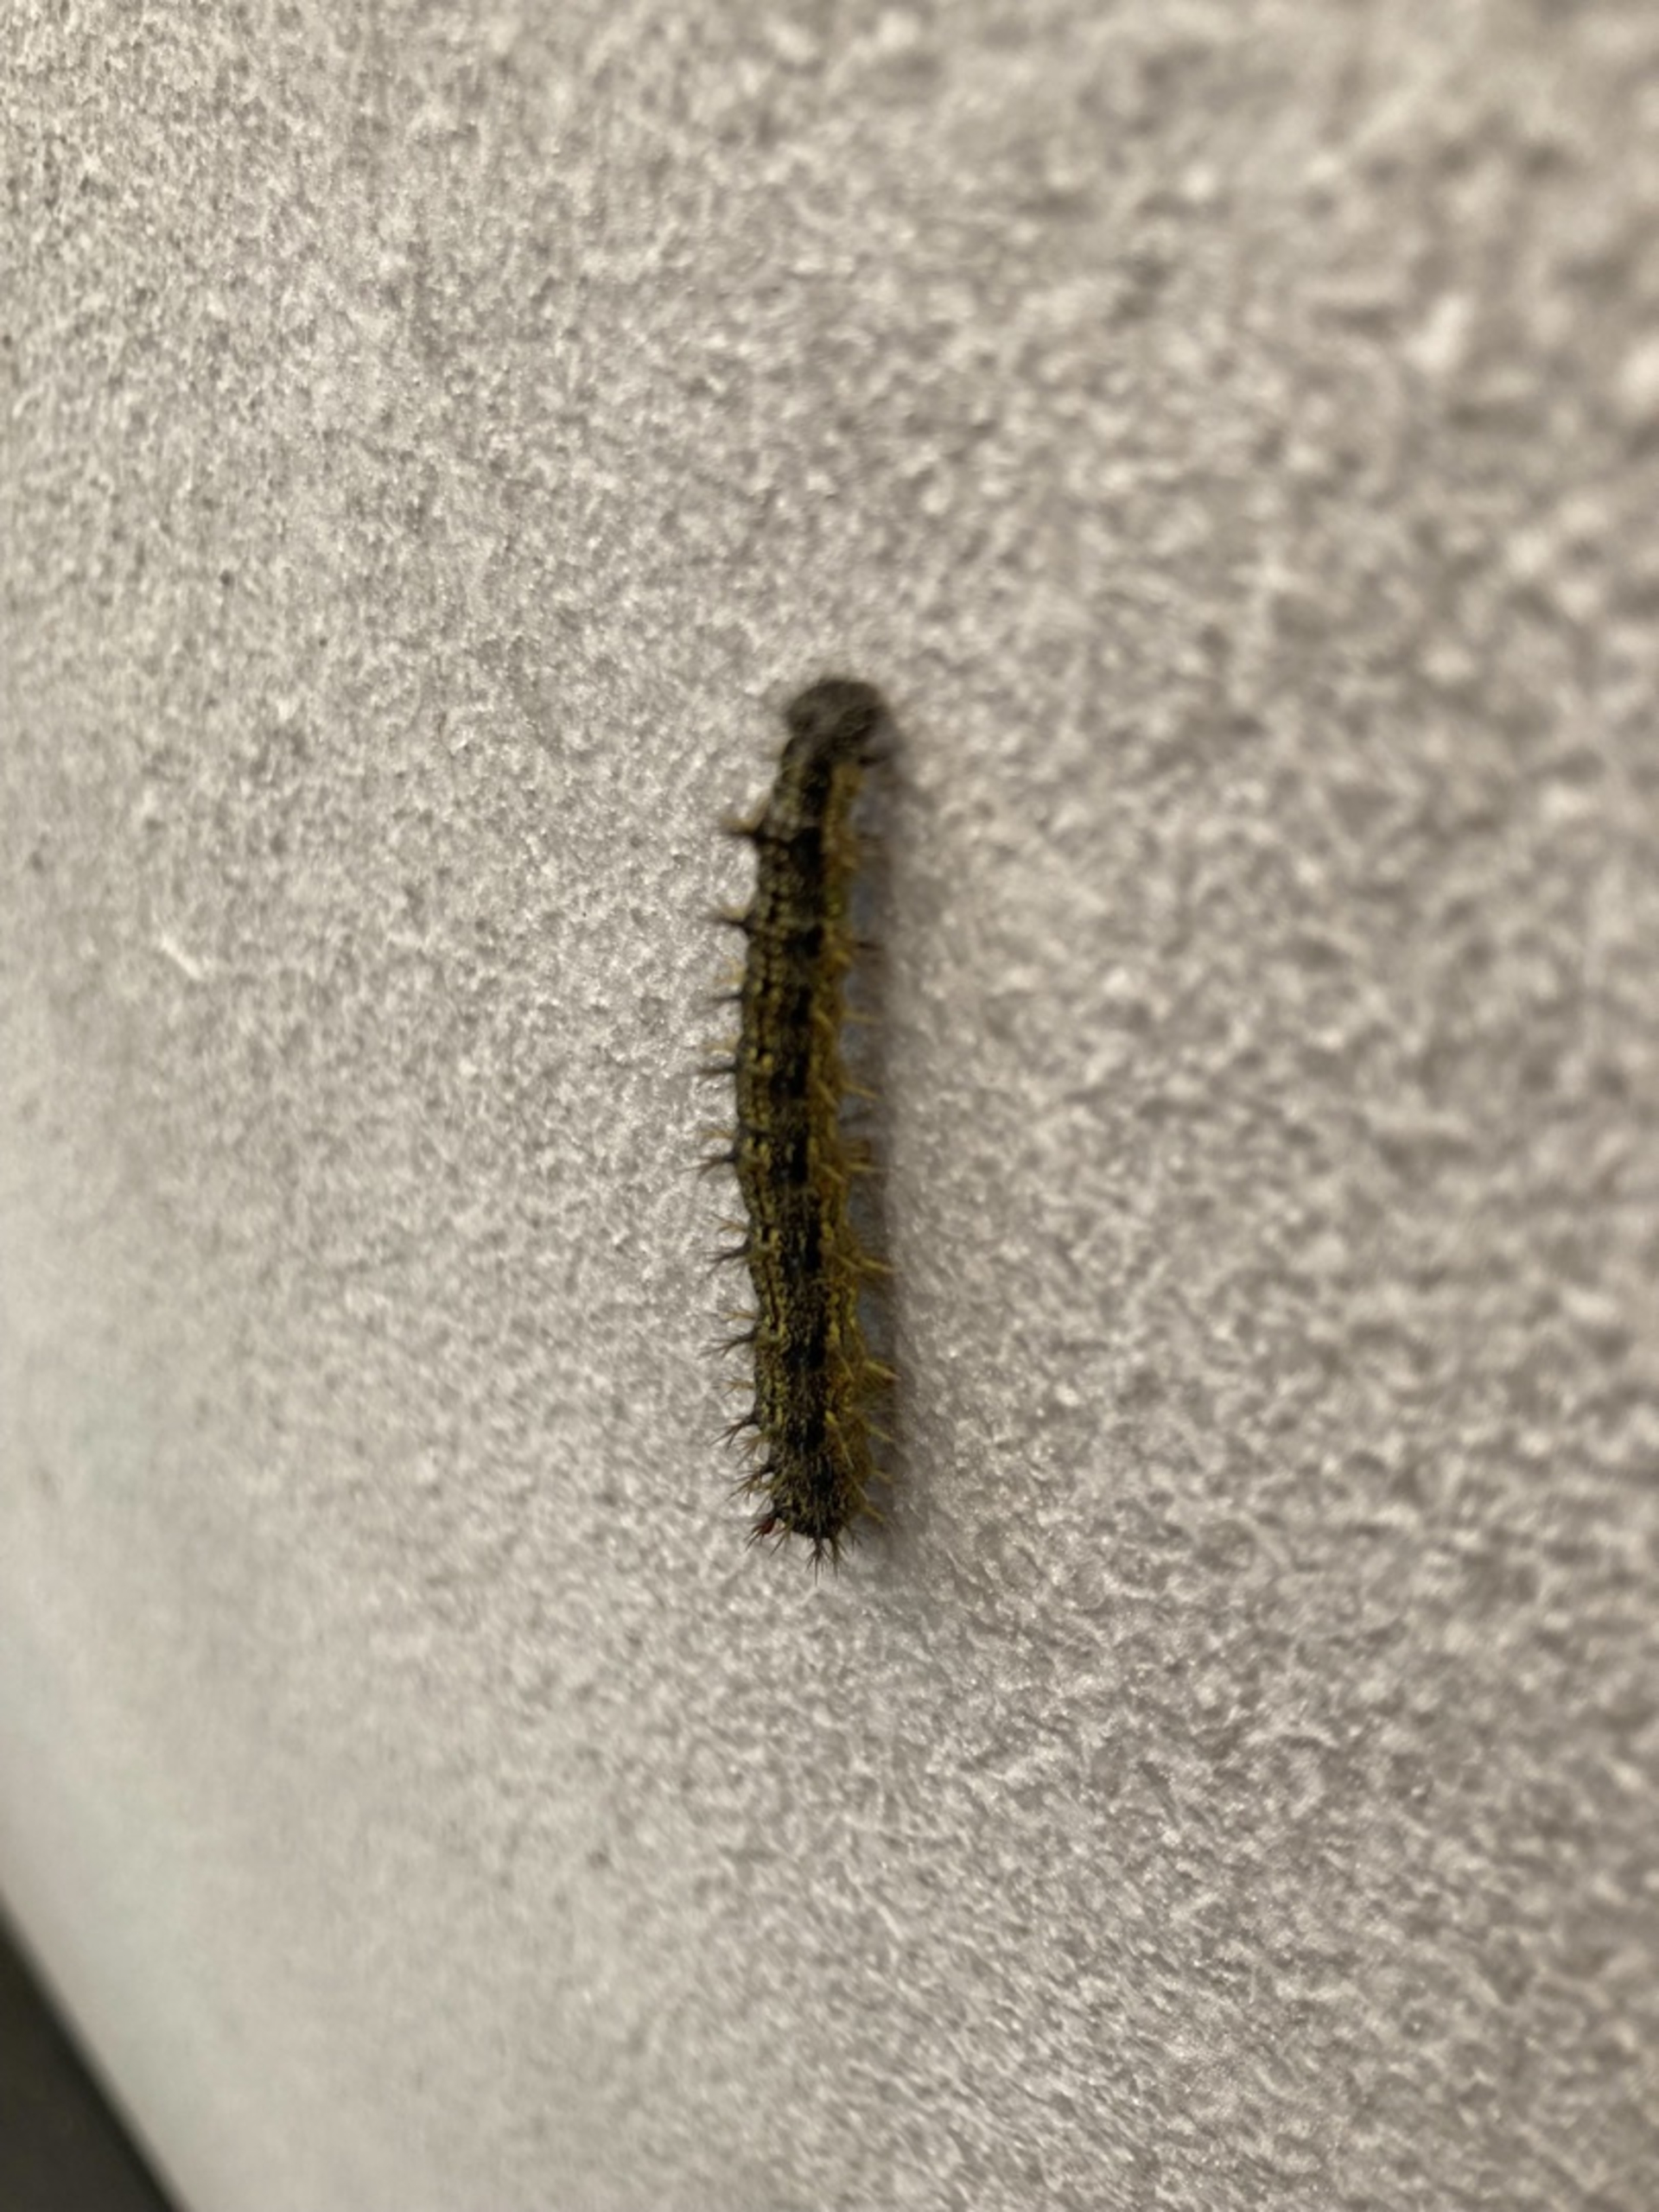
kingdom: Animalia
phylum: Arthropoda
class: Insecta
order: Lepidoptera
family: Nymphalidae
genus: Aglais
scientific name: Aglais urticae
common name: Nældens takvinge
